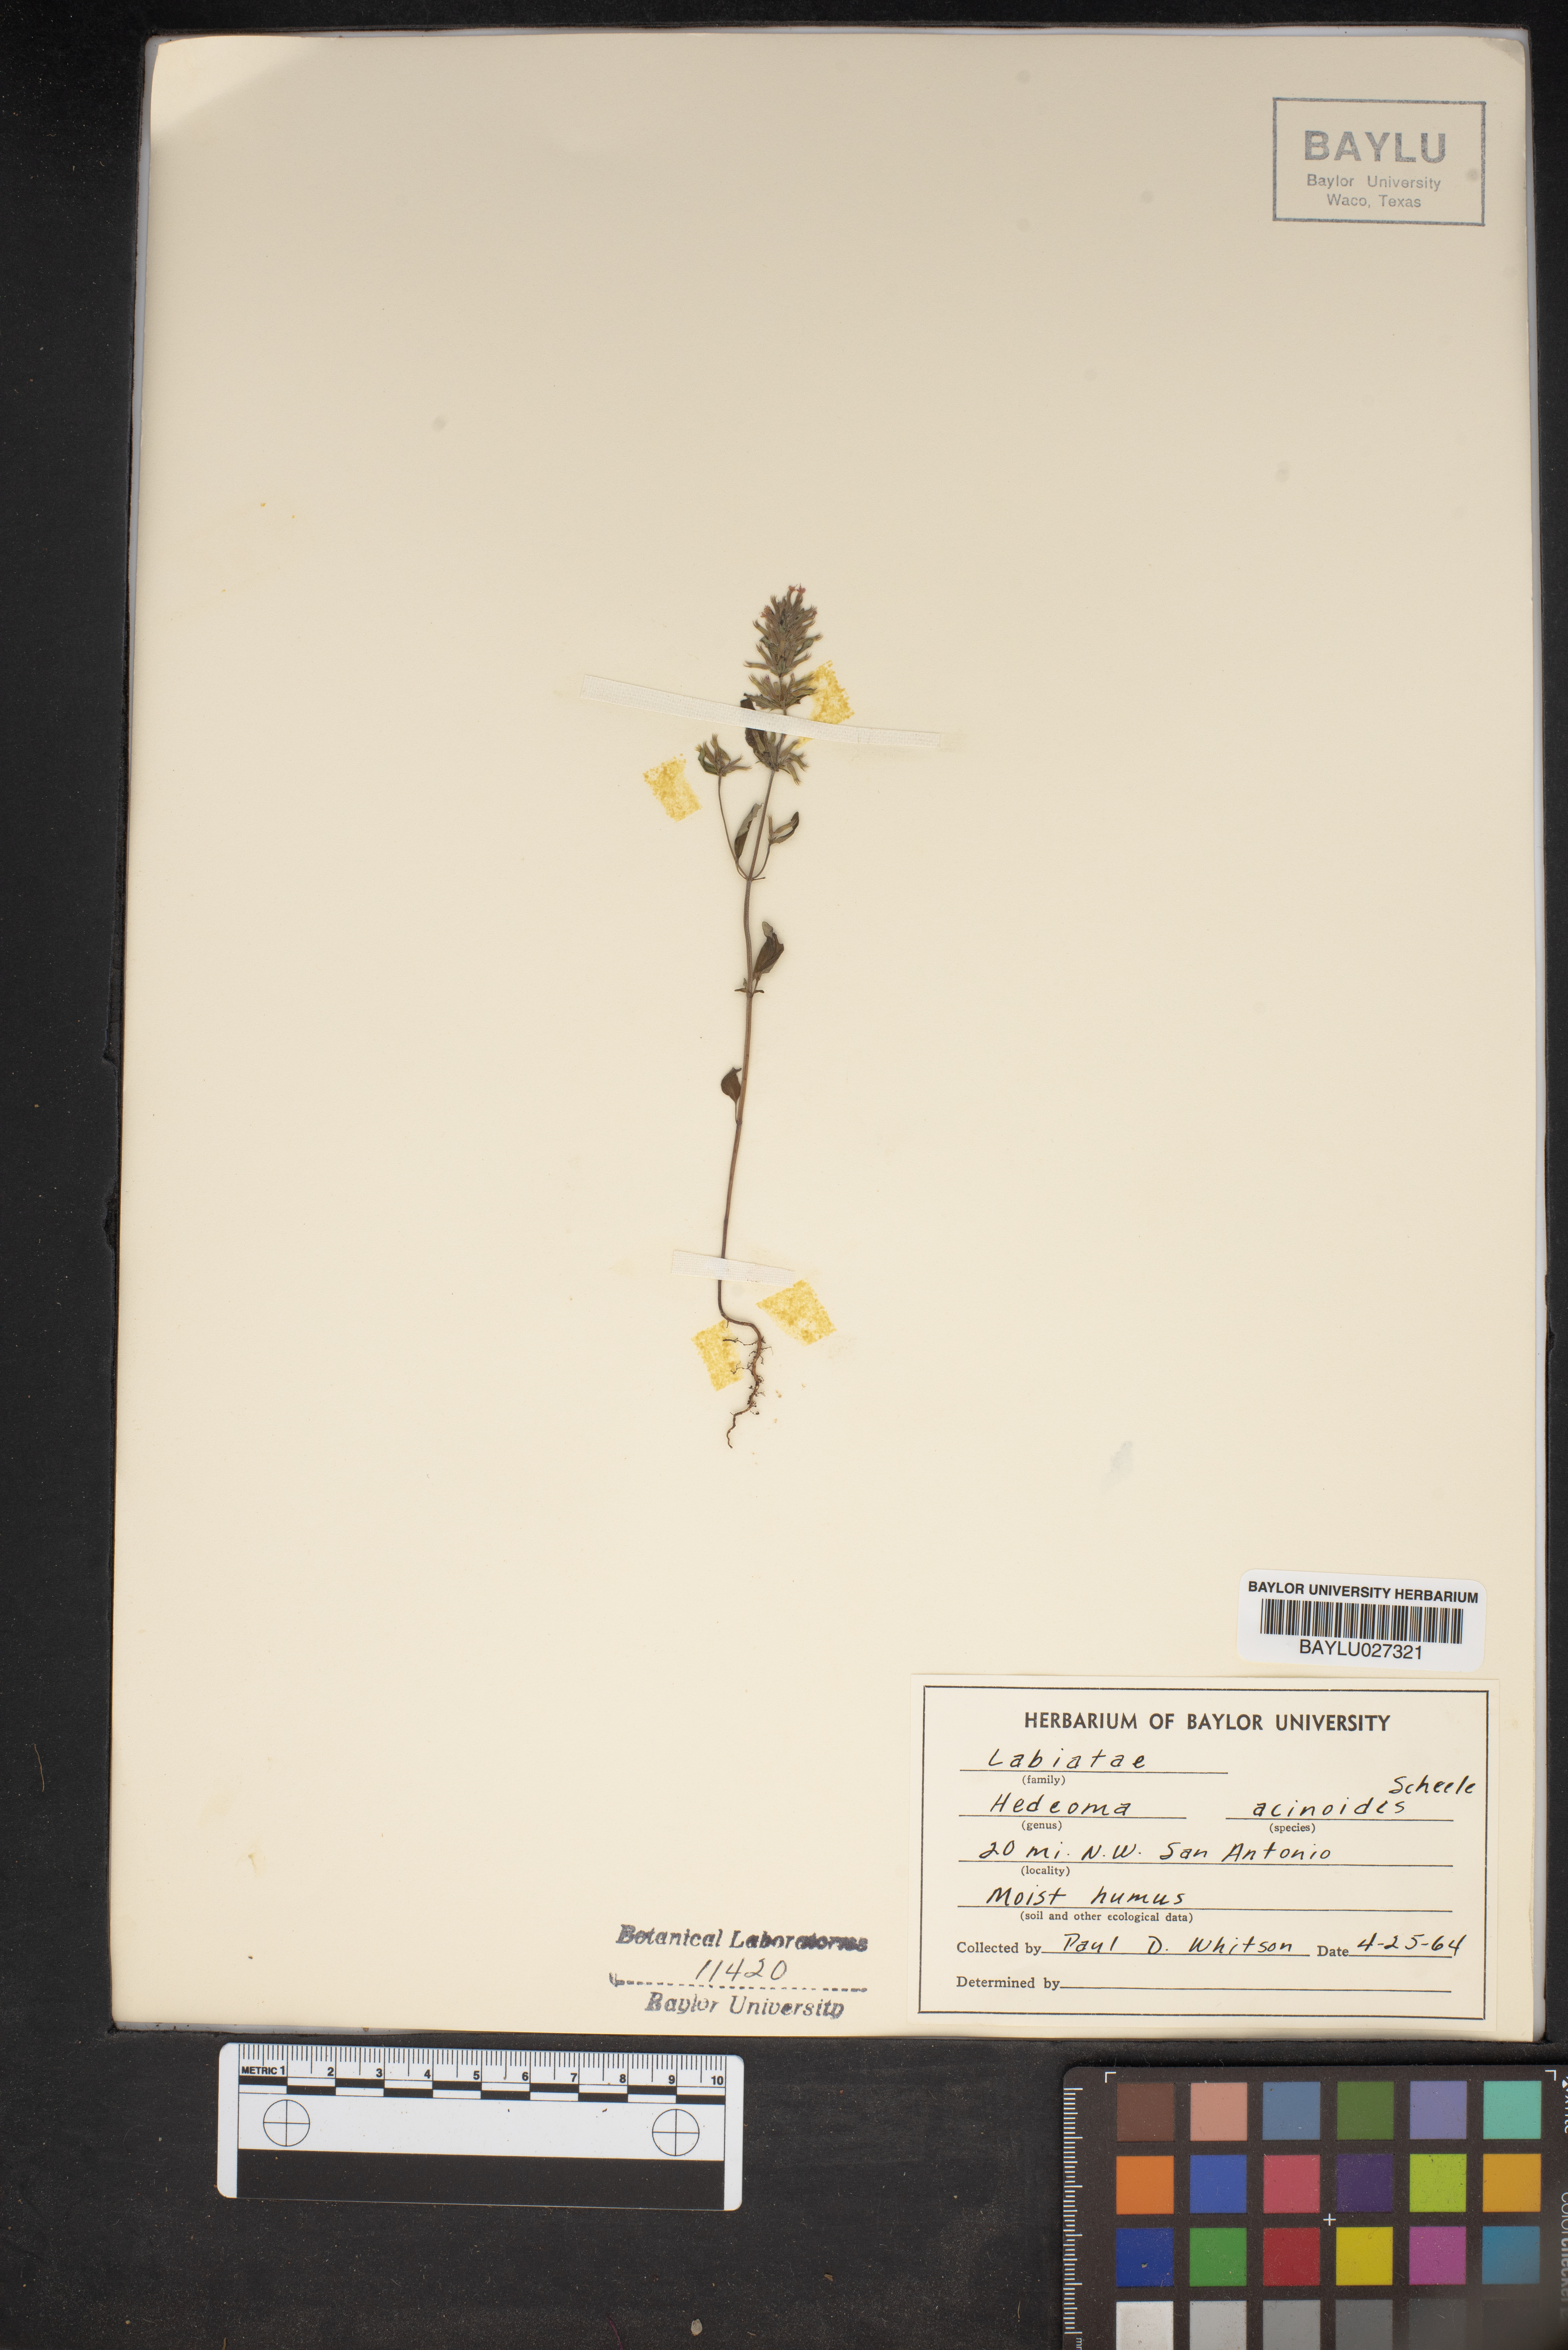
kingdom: Plantae
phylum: Tracheophyta
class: Magnoliopsida
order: Lamiales
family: Lamiaceae
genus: Hedeoma
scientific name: Hedeoma acinoides
